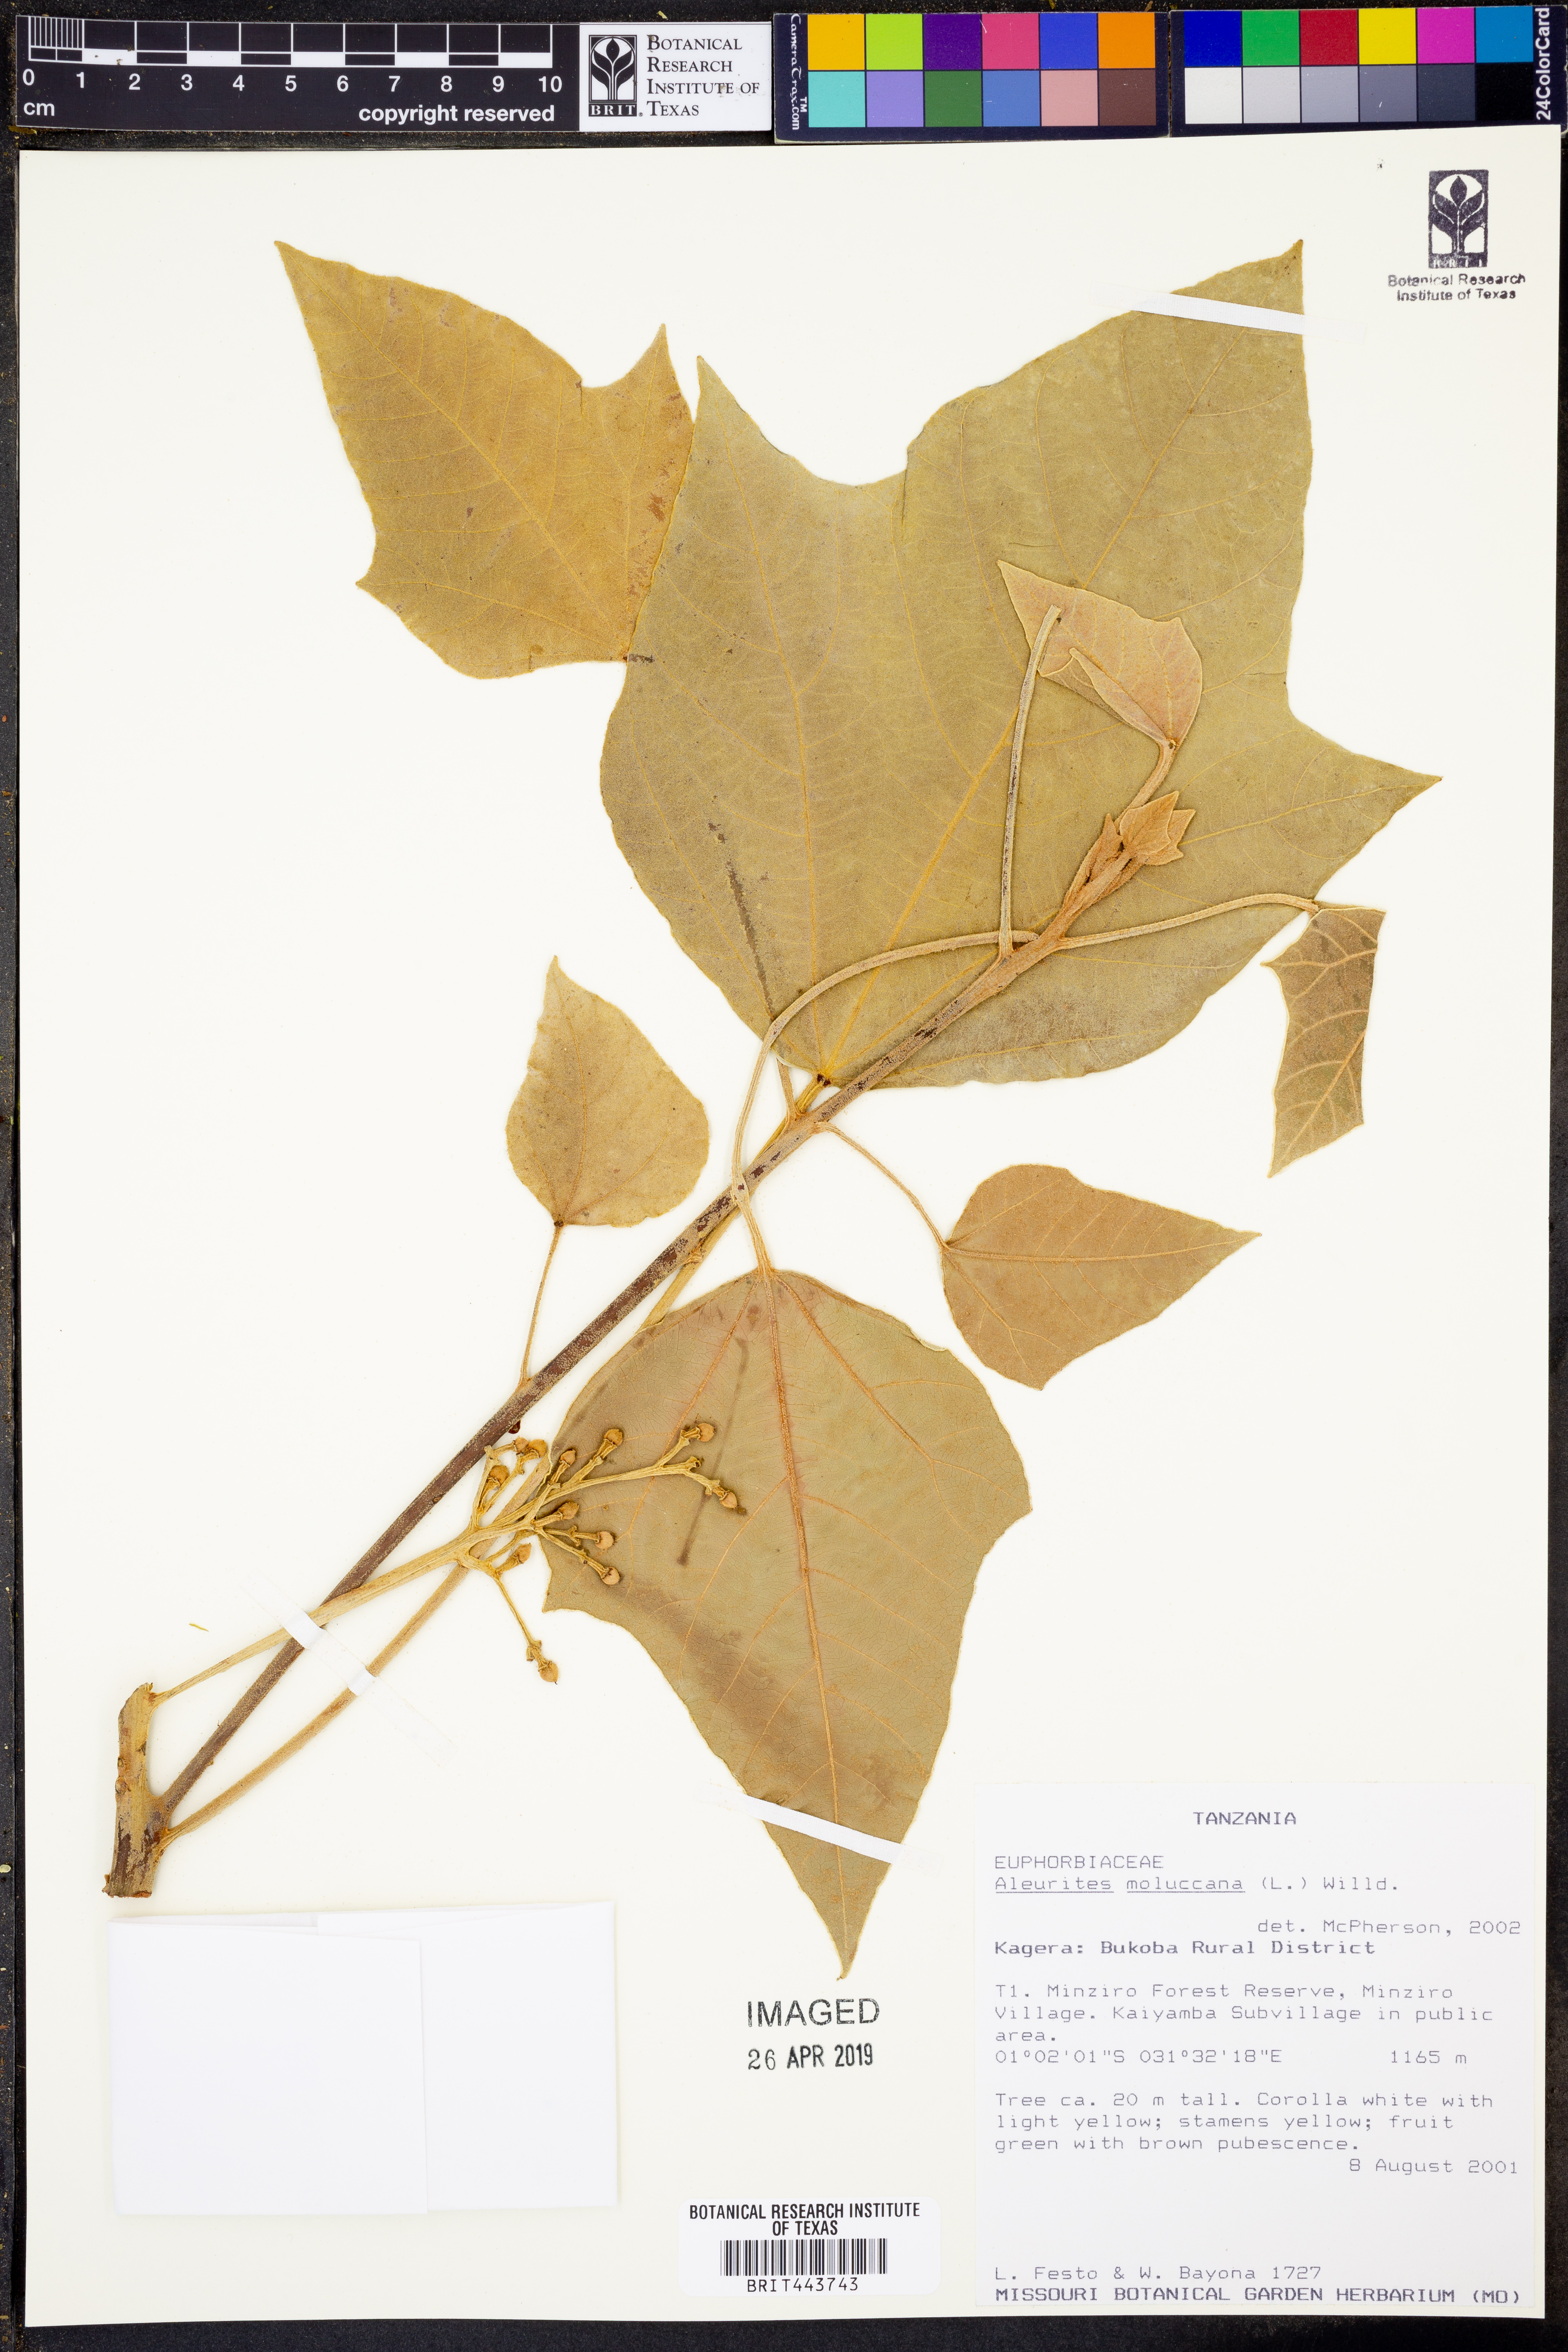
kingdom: Plantae
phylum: Tracheophyta
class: Magnoliopsida
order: Malpighiales
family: Euphorbiaceae
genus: Aleurites
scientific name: Aleurites moluccanus
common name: Candlenut tree
